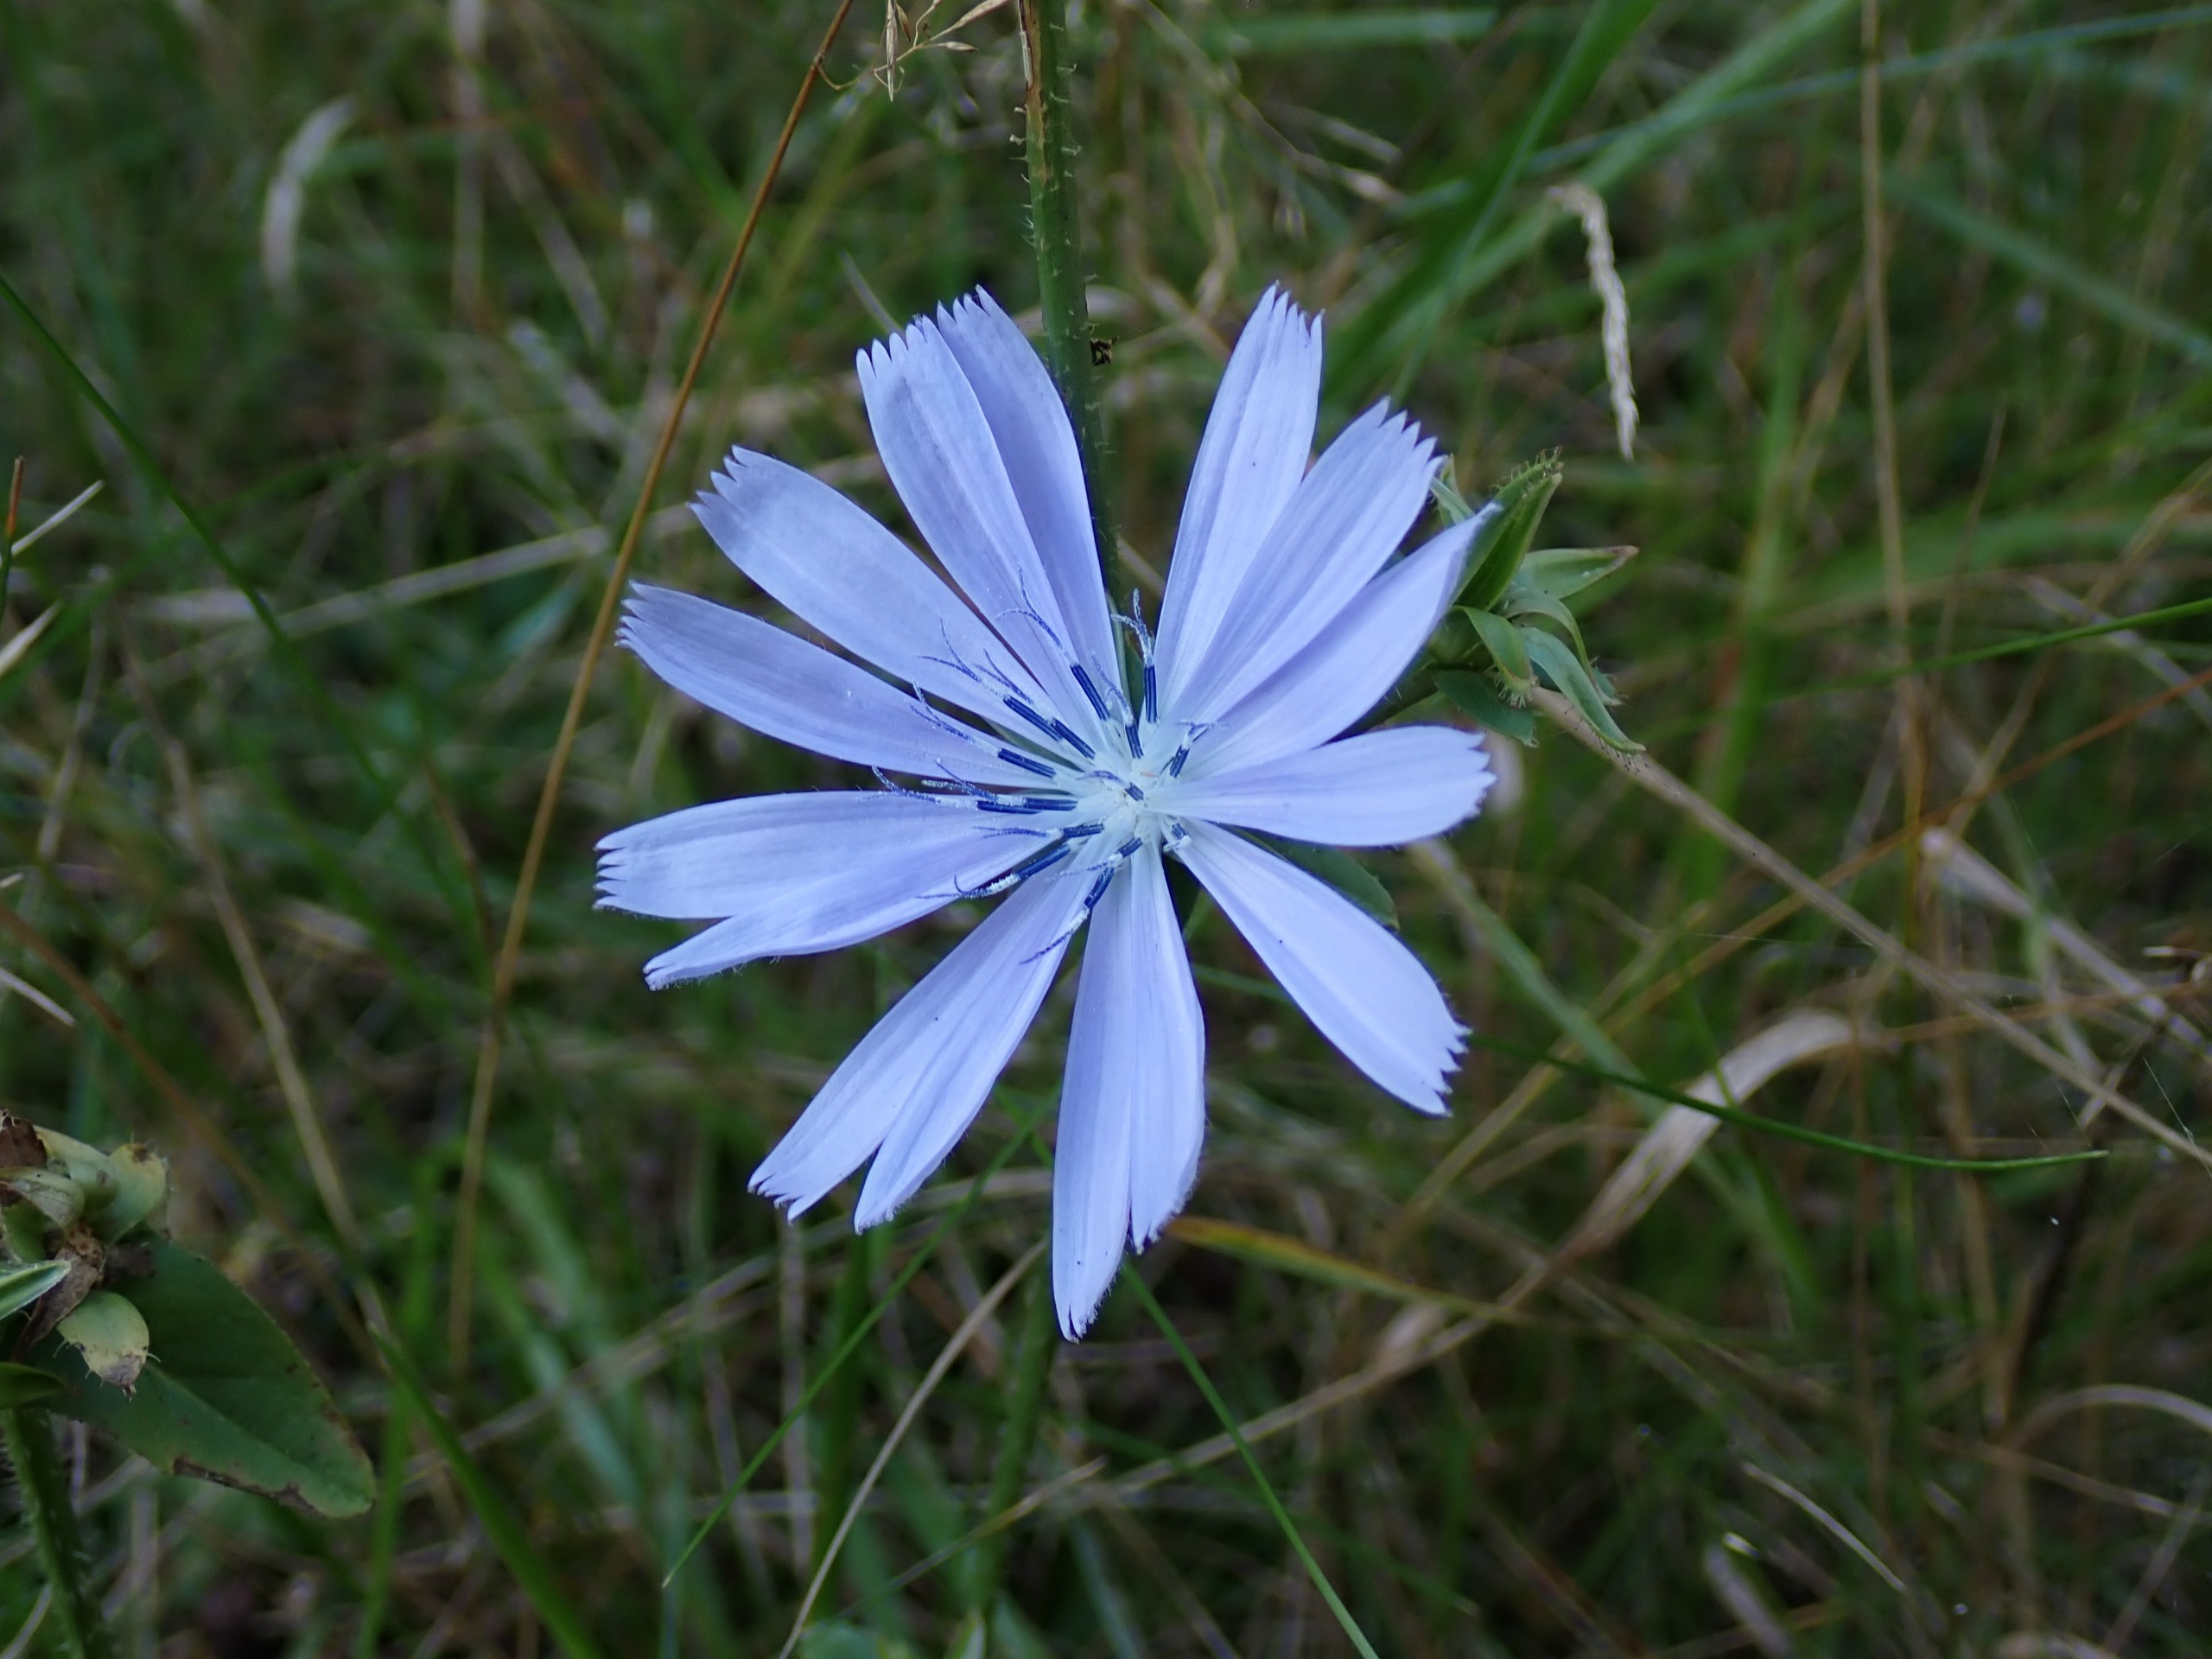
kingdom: Plantae
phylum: Tracheophyta
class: Magnoliopsida
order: Asterales
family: Asteraceae
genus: Cichorium
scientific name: Cichorium intybus
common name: Cikorie
